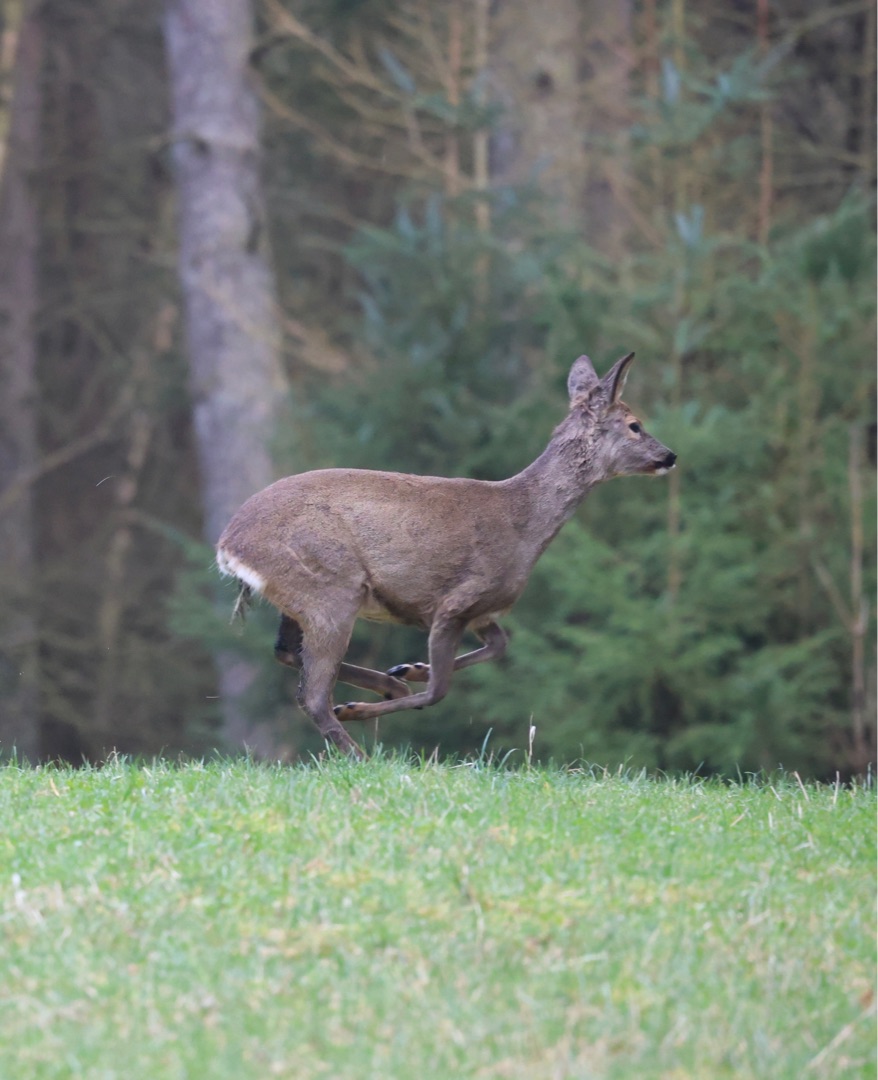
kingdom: Animalia
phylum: Chordata
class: Mammalia
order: Artiodactyla
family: Cervidae
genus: Capreolus
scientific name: Capreolus capreolus
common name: Rådyr
